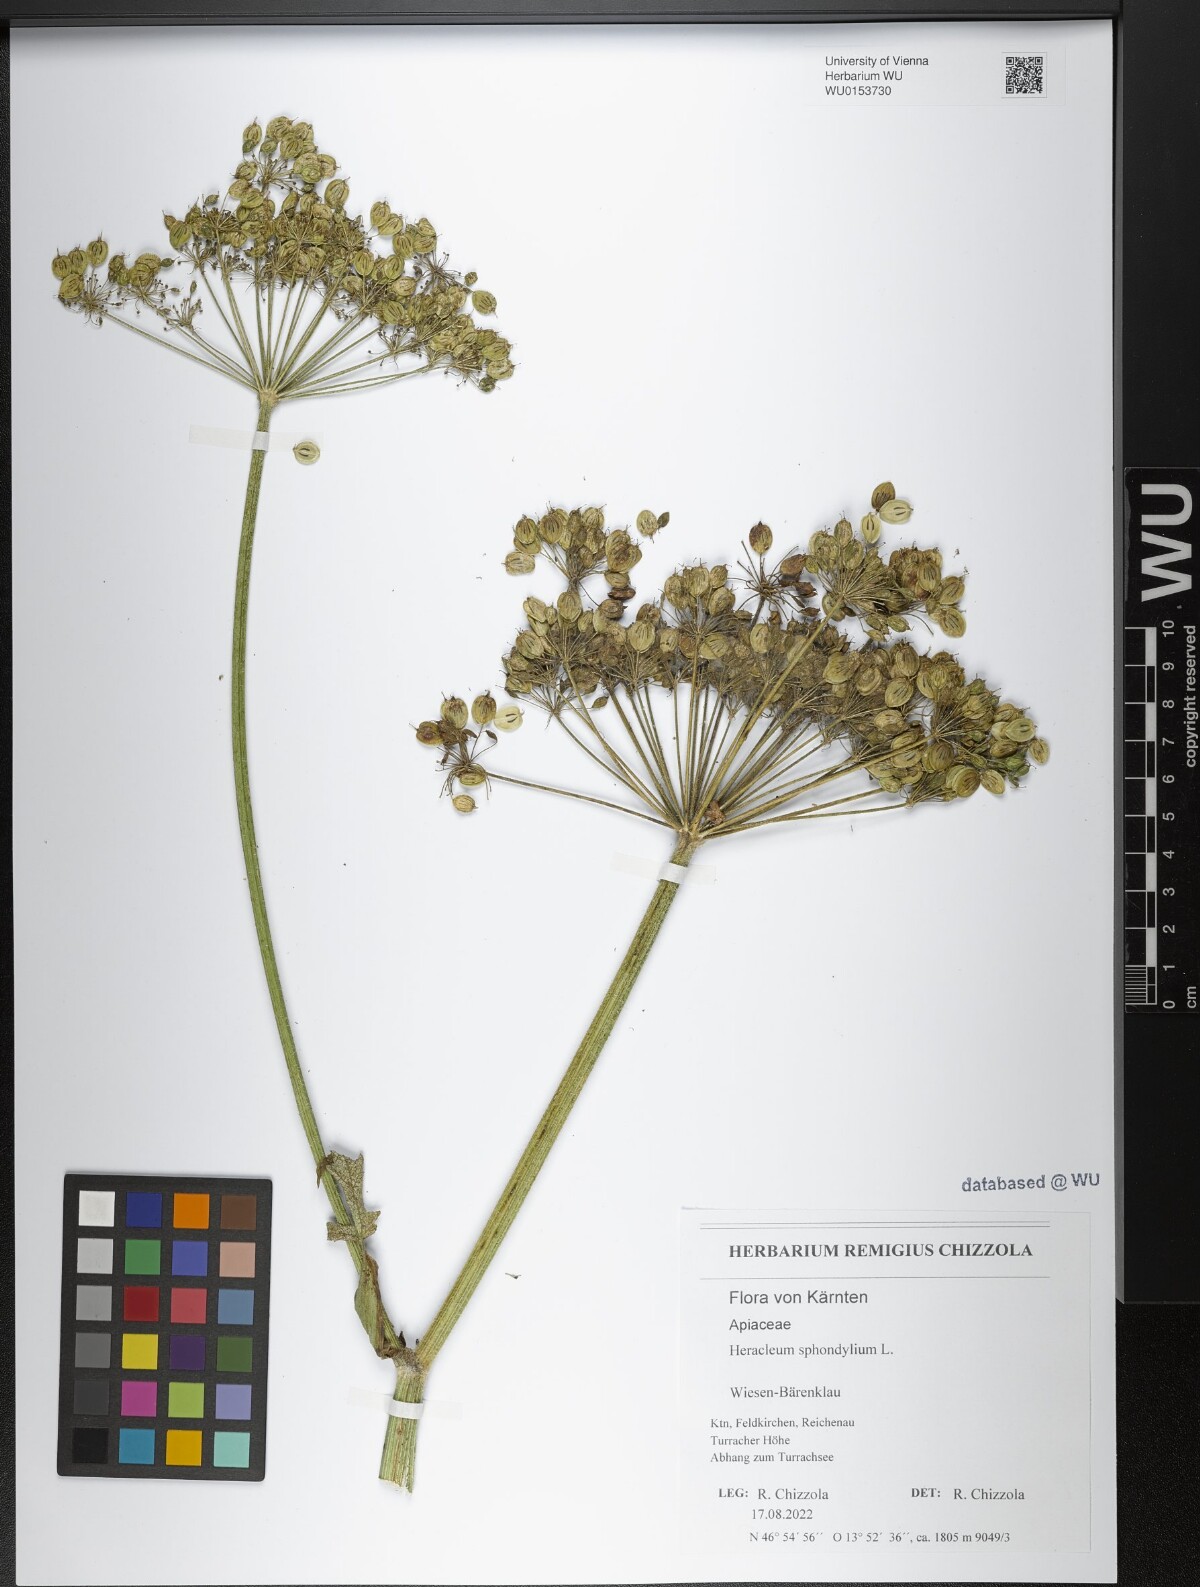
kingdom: Plantae
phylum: Tracheophyta
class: Magnoliopsida
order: Apiales
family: Apiaceae
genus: Heracleum
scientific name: Heracleum sphondylium
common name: Hogweed
